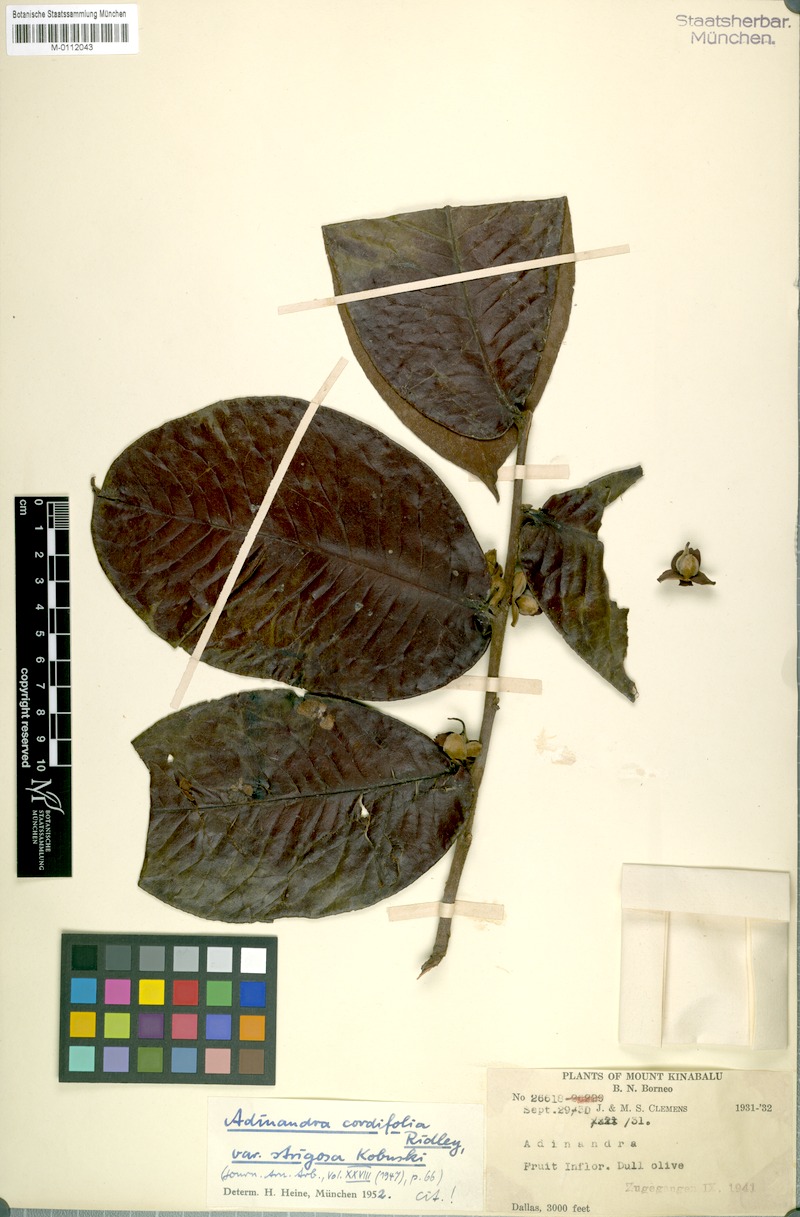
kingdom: Plantae
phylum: Tracheophyta
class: Magnoliopsida
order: Ericales
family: Pentaphylacaceae
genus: Adinandra
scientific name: Adinandra cordifolia
